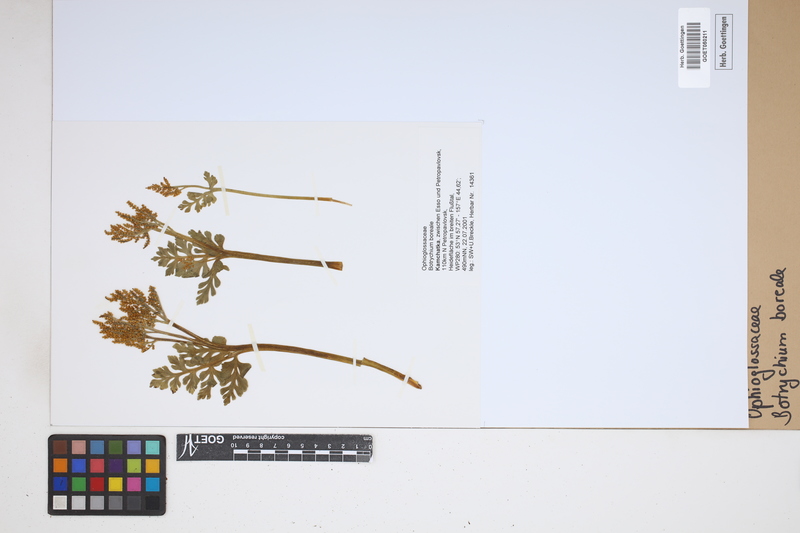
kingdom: Plantae
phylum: Tracheophyta
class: Polypodiopsida
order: Ophioglossales
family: Ophioglossaceae
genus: Botrychium
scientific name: Botrychium boreale
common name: Boreal moonwort
